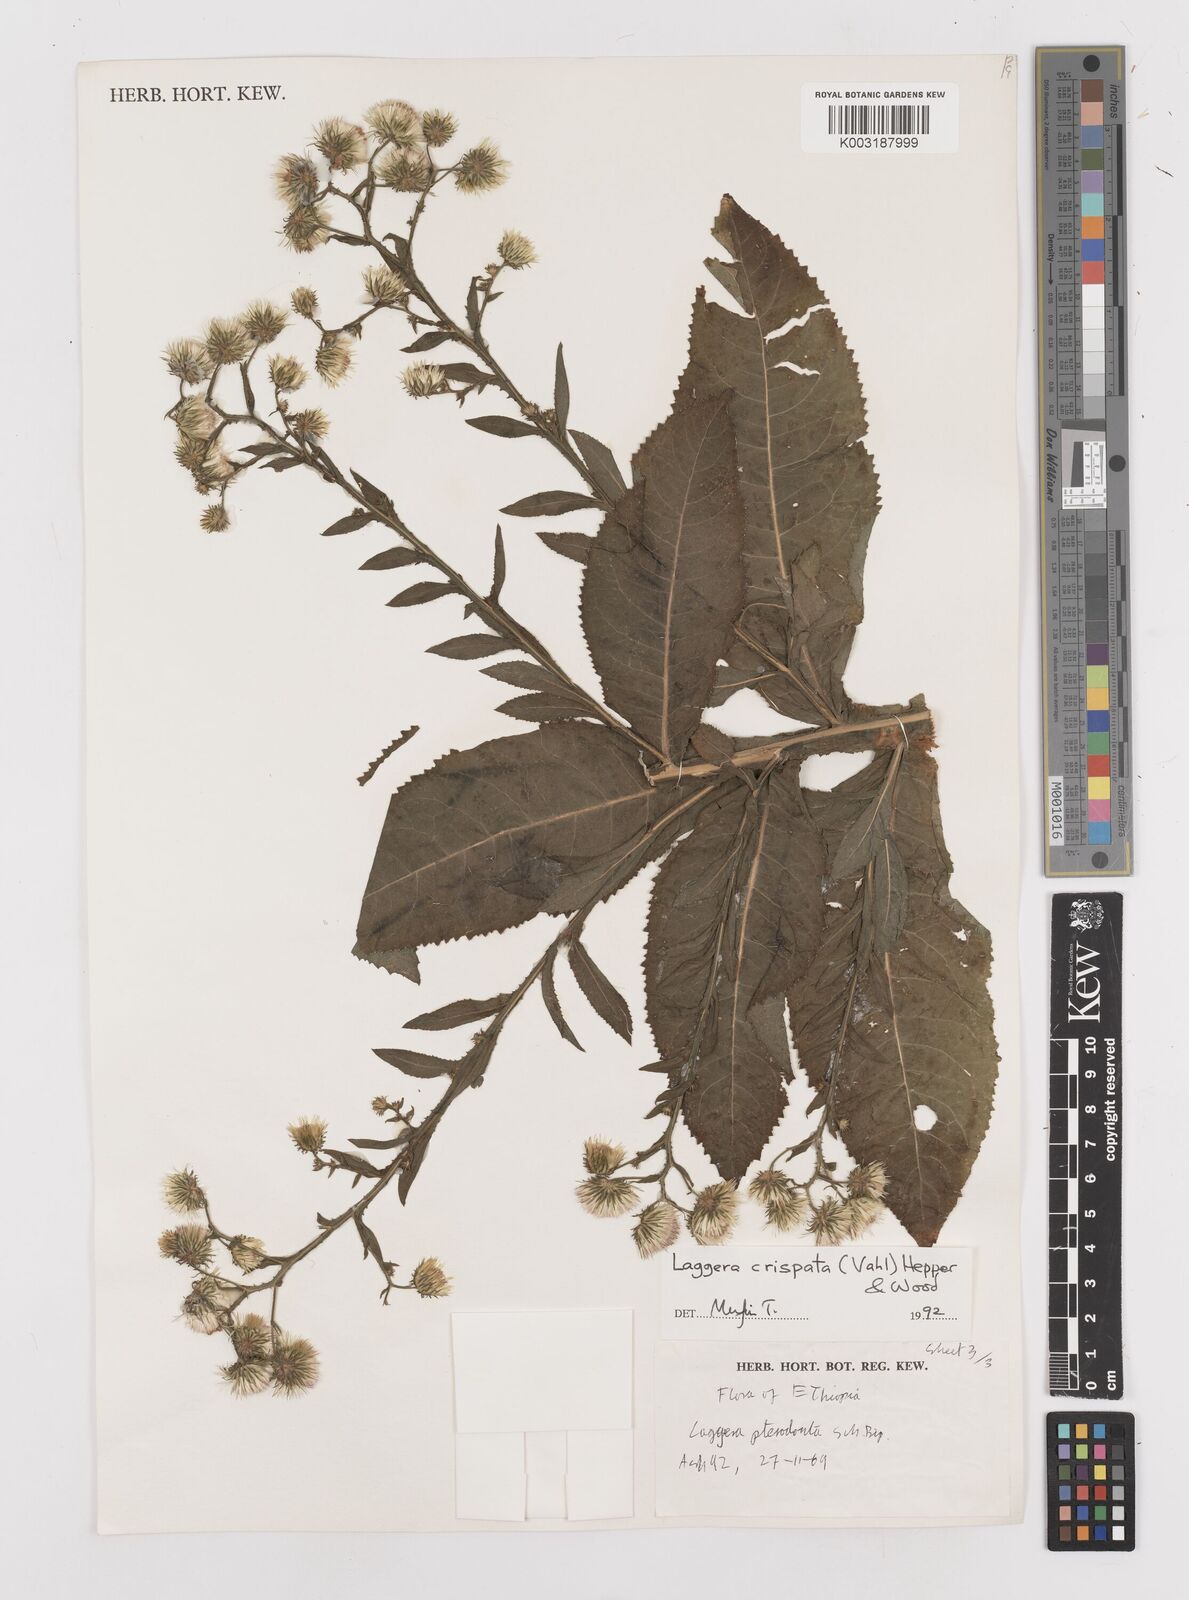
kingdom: Plantae
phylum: Tracheophyta
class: Magnoliopsida
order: Asterales
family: Asteraceae
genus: Laggera
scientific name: Laggera crispata
